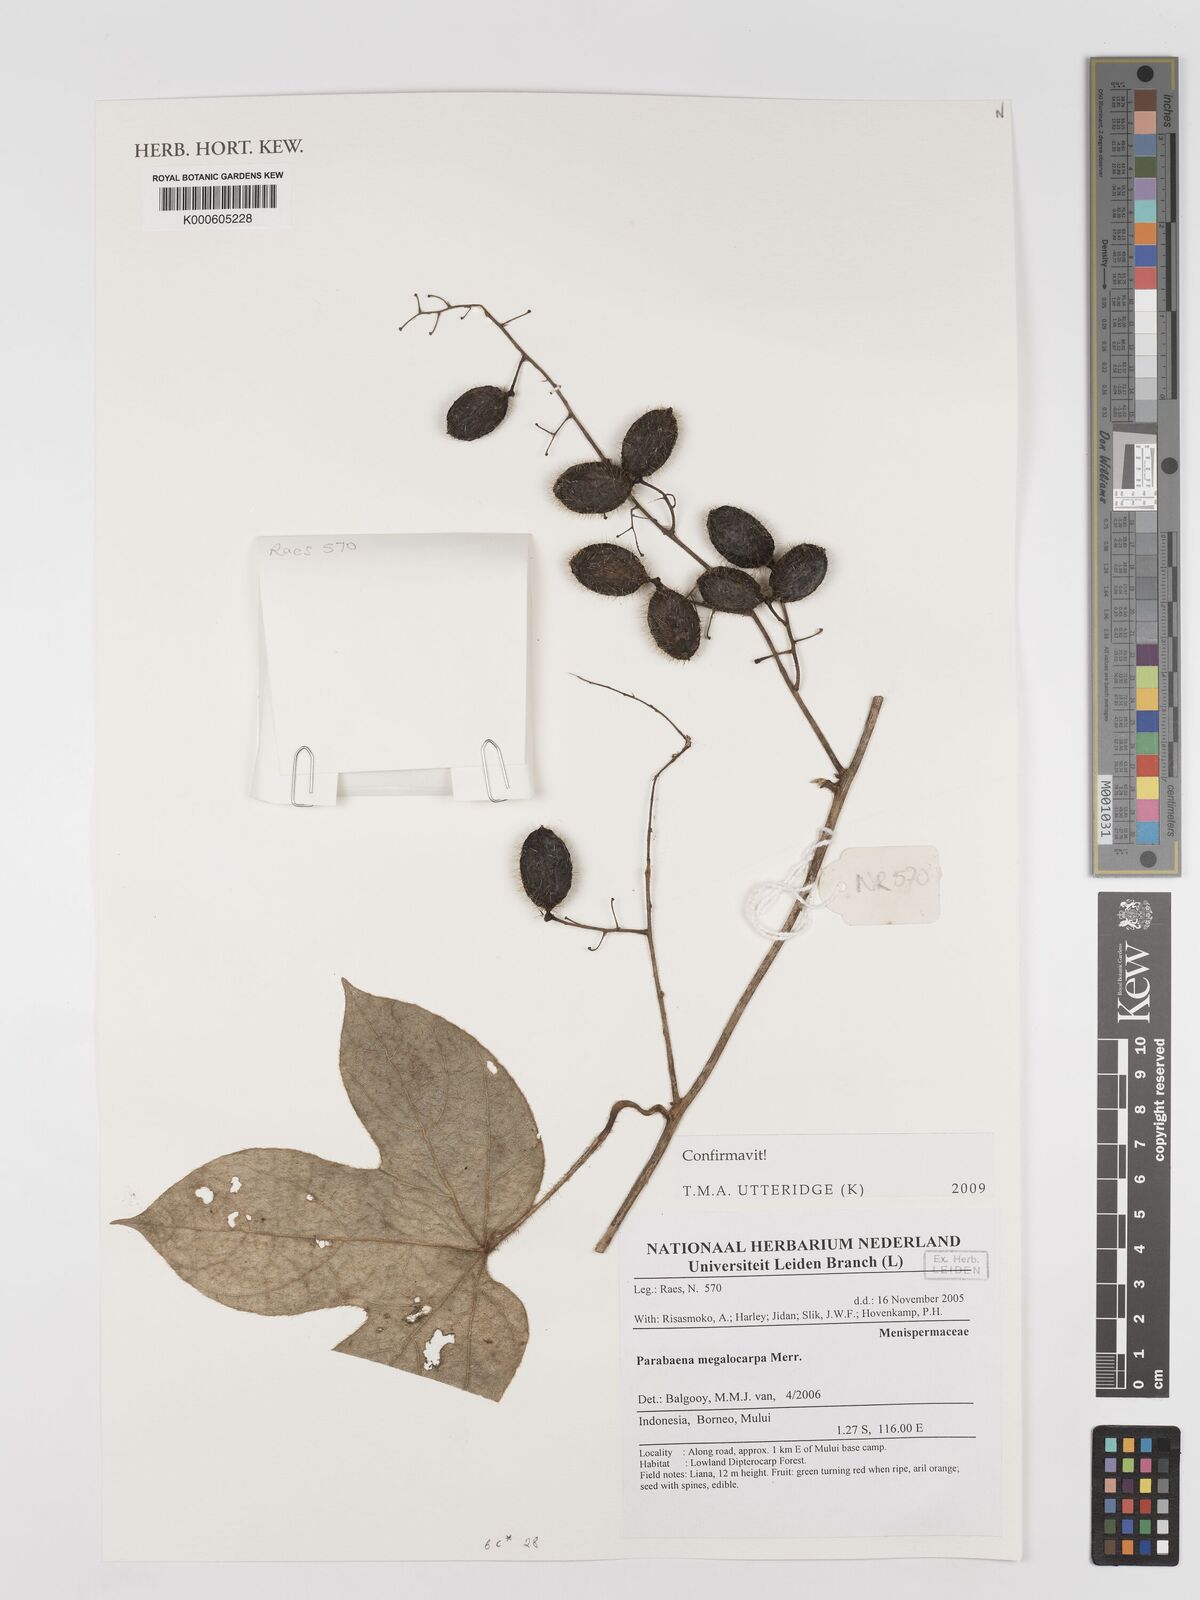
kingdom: Plantae
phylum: Tracheophyta
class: Magnoliopsida
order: Ranunculales
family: Menispermaceae
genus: Parabaena
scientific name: Parabaena megalocarpa
